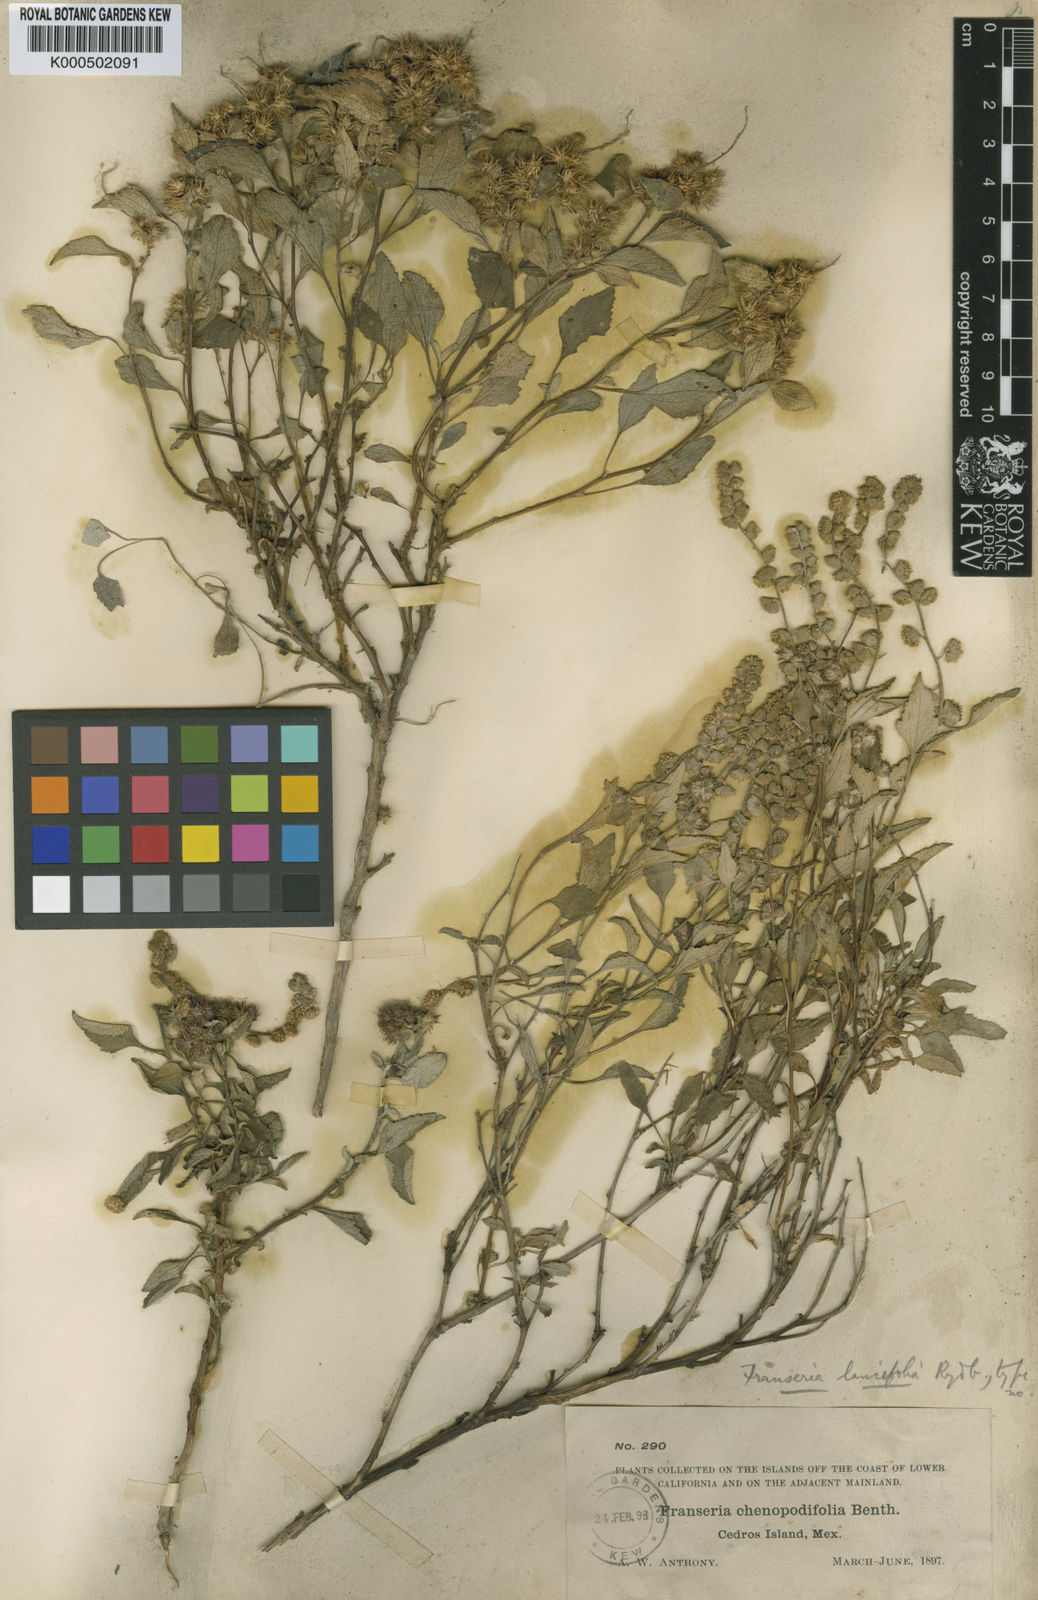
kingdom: Plantae
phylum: Tracheophyta
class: Magnoliopsida
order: Asterales
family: Asteraceae
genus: Ambrosia
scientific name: Ambrosia
